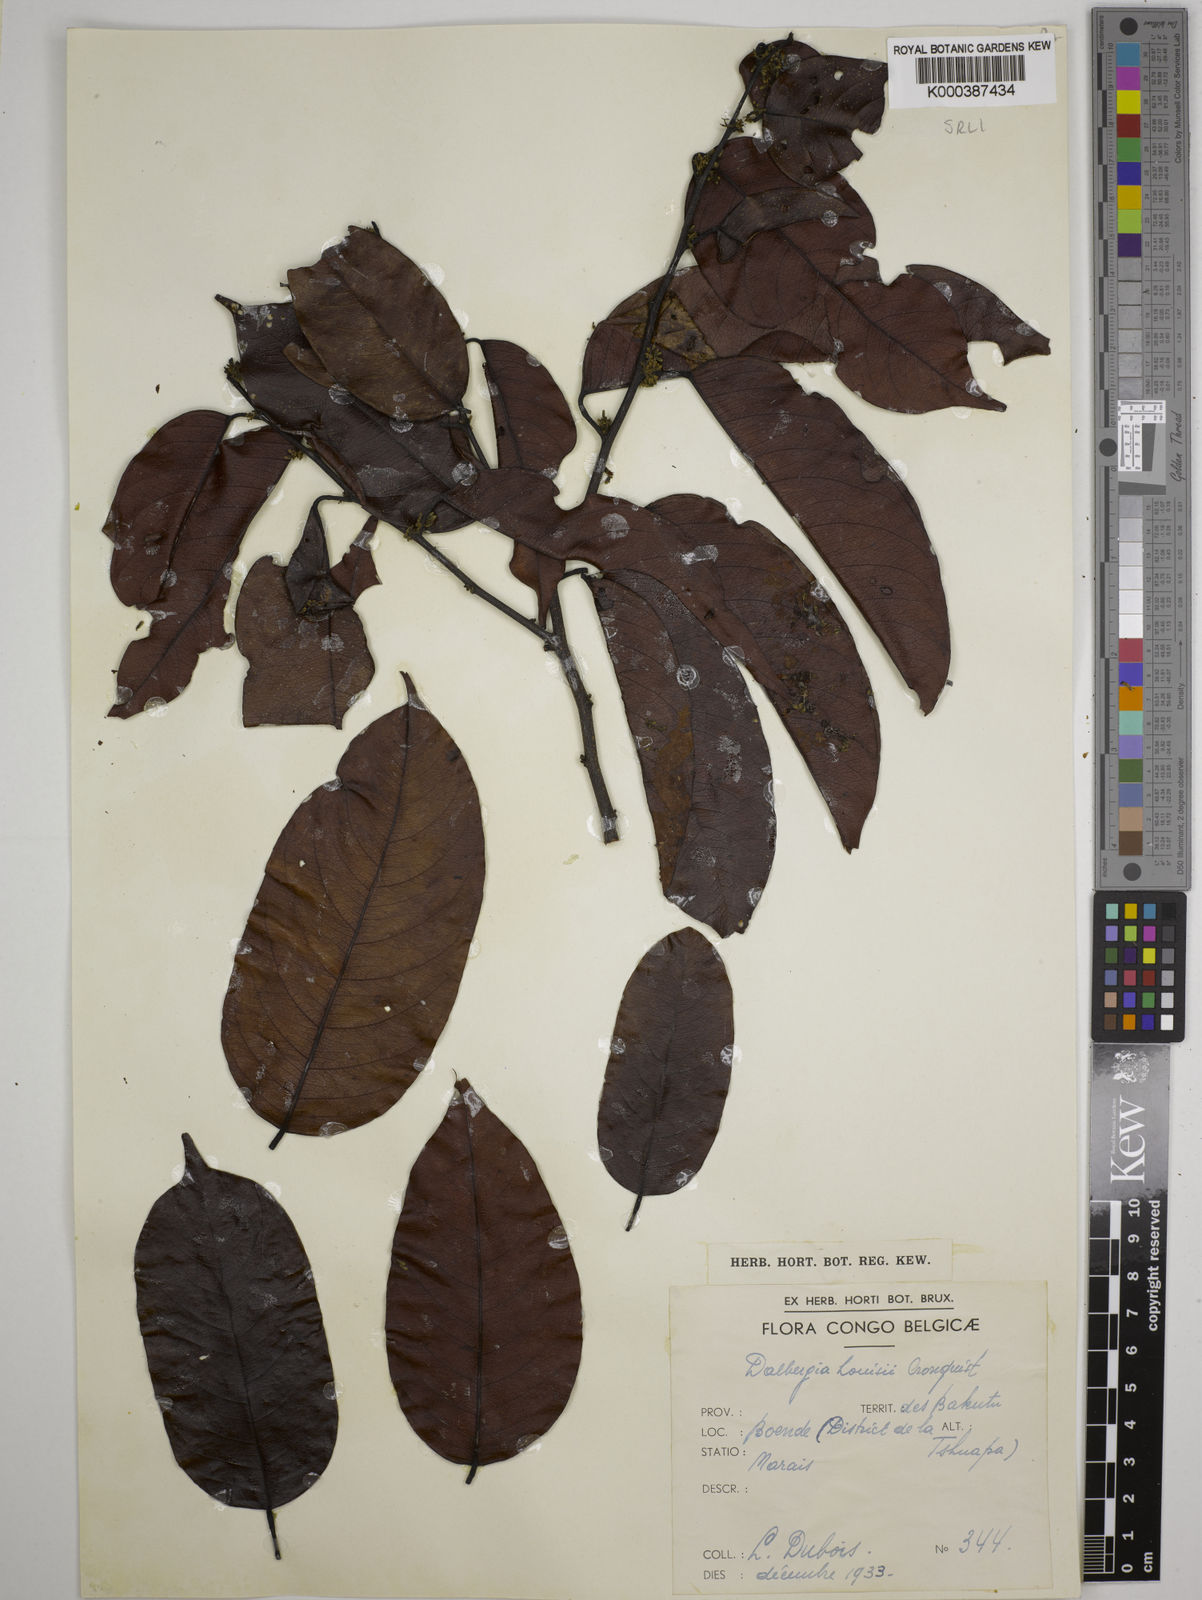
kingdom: Plantae
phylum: Tracheophyta
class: Magnoliopsida
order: Fabales
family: Fabaceae
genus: Dalbergia
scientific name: Dalbergia louisii
